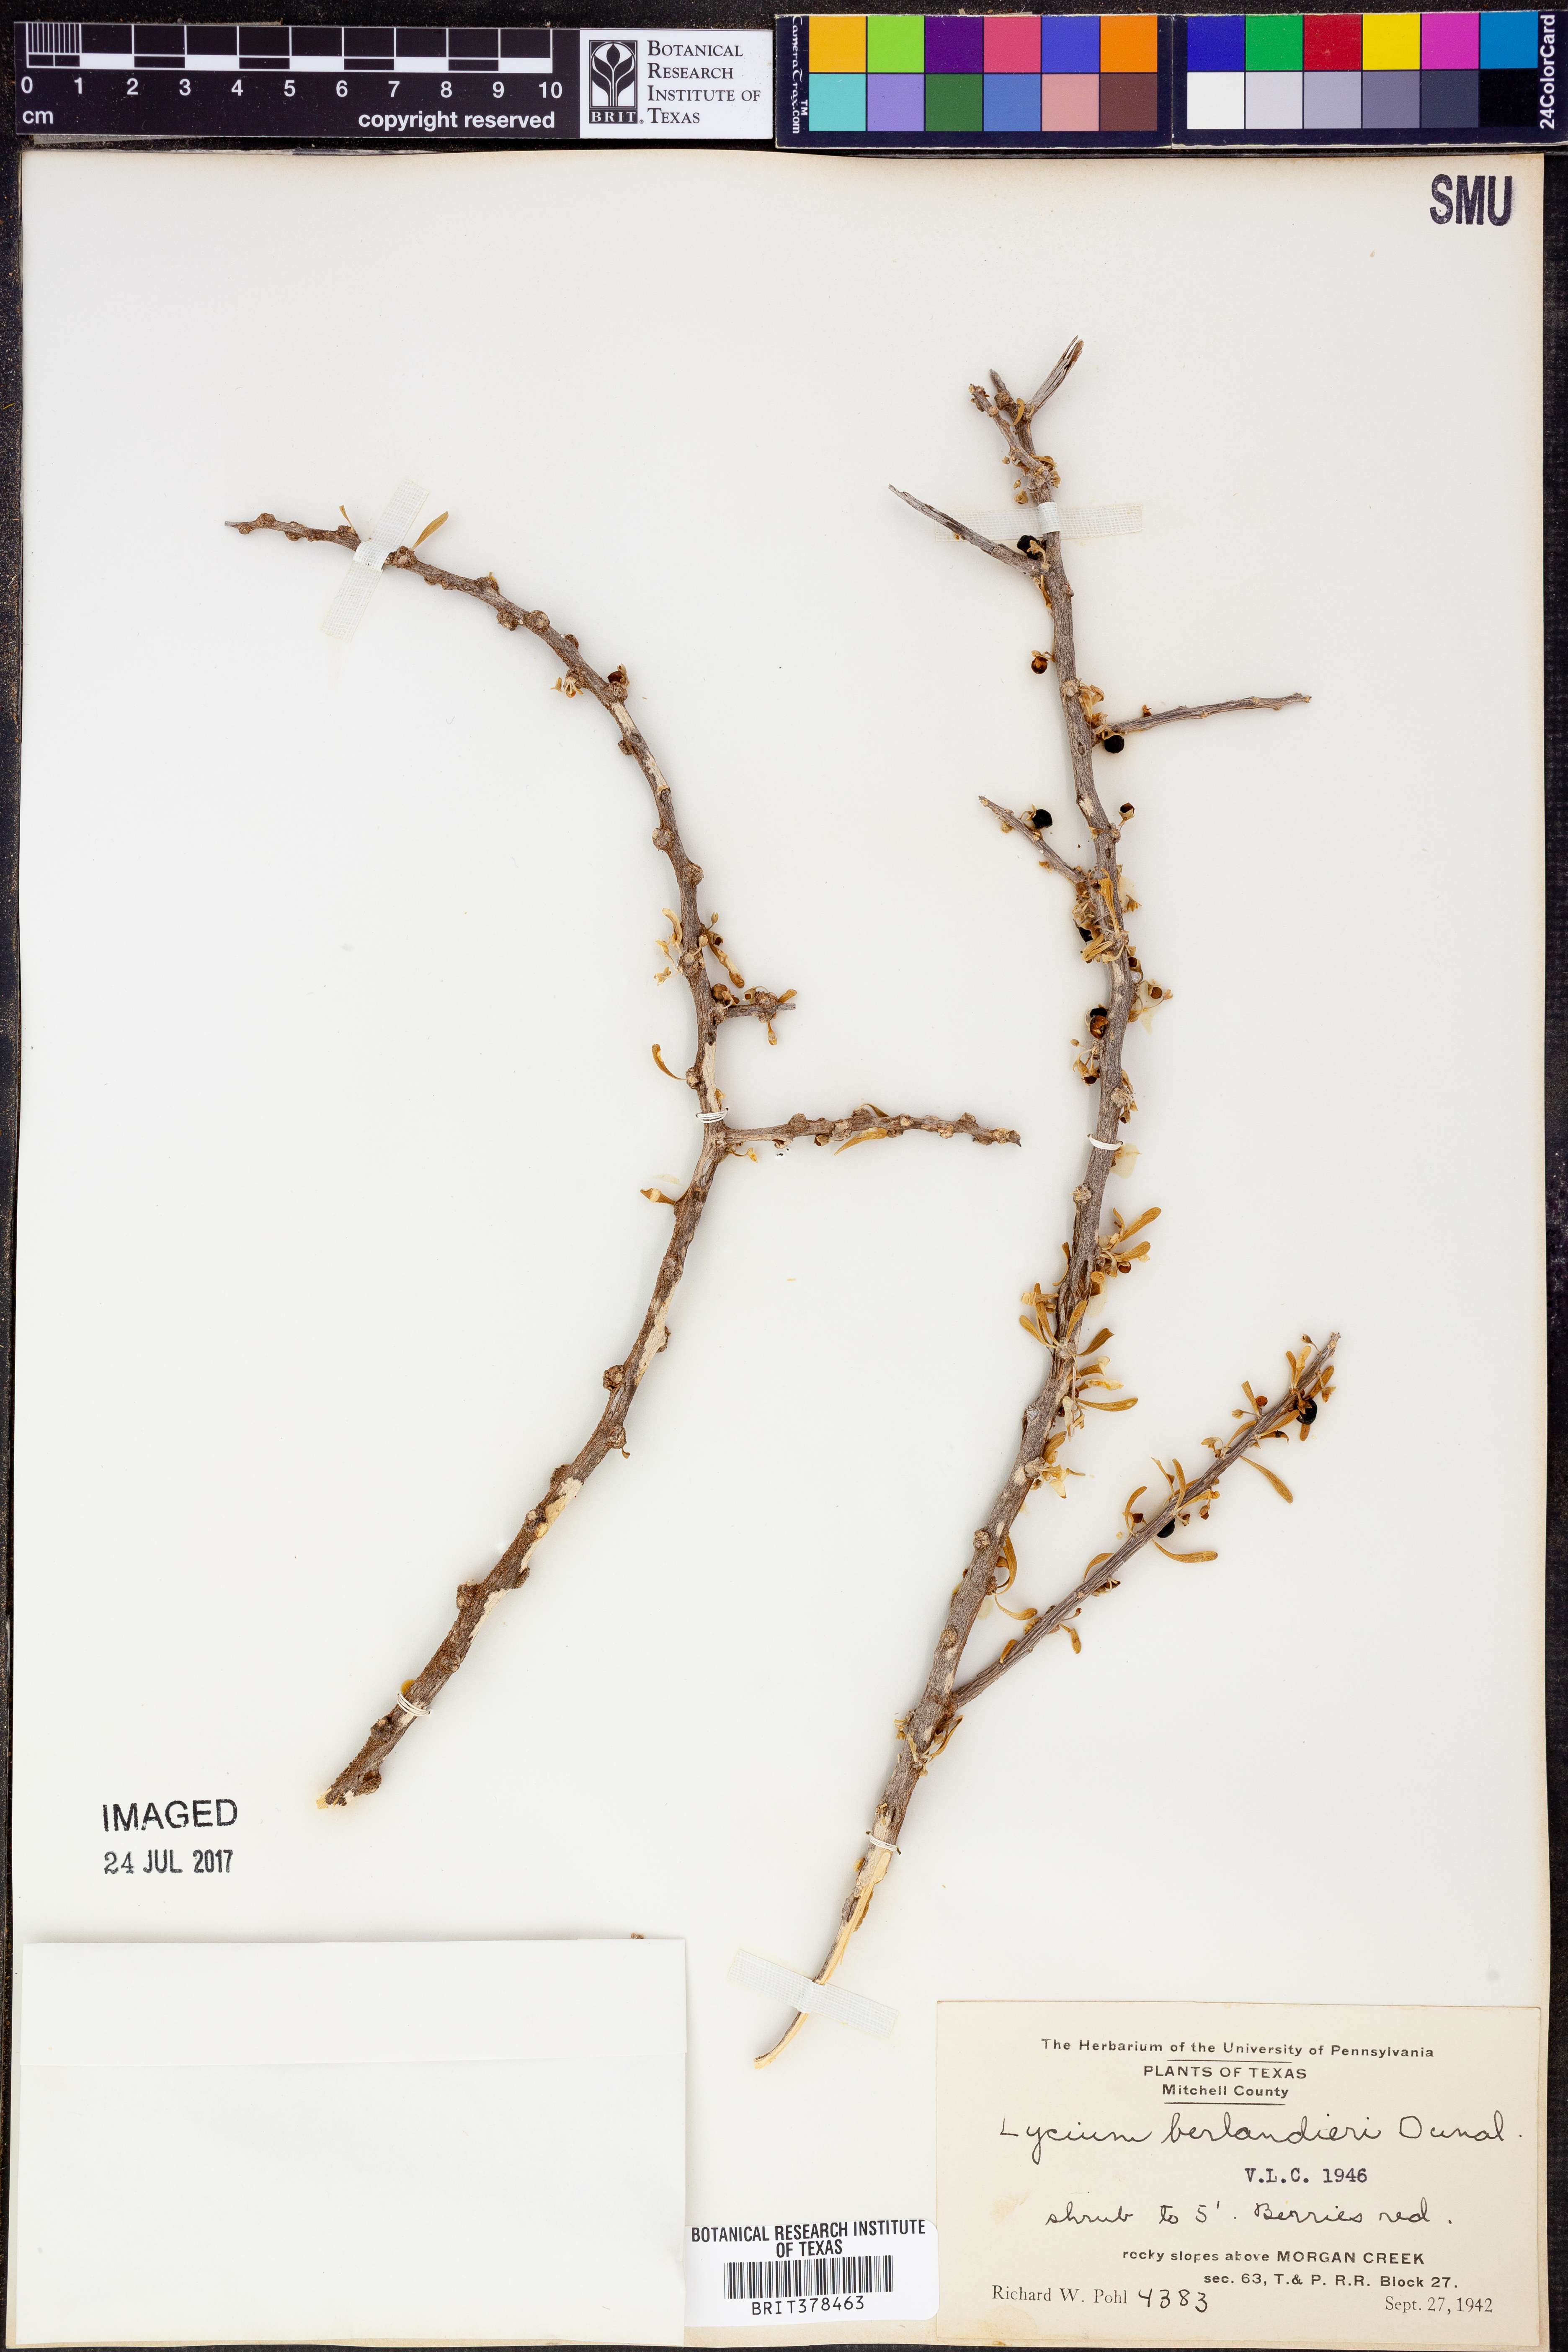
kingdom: Plantae
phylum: Tracheophyta
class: Magnoliopsida
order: Solanales
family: Solanaceae
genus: Lycium
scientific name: Lycium berlandieri
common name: Berlandier wolfberry
